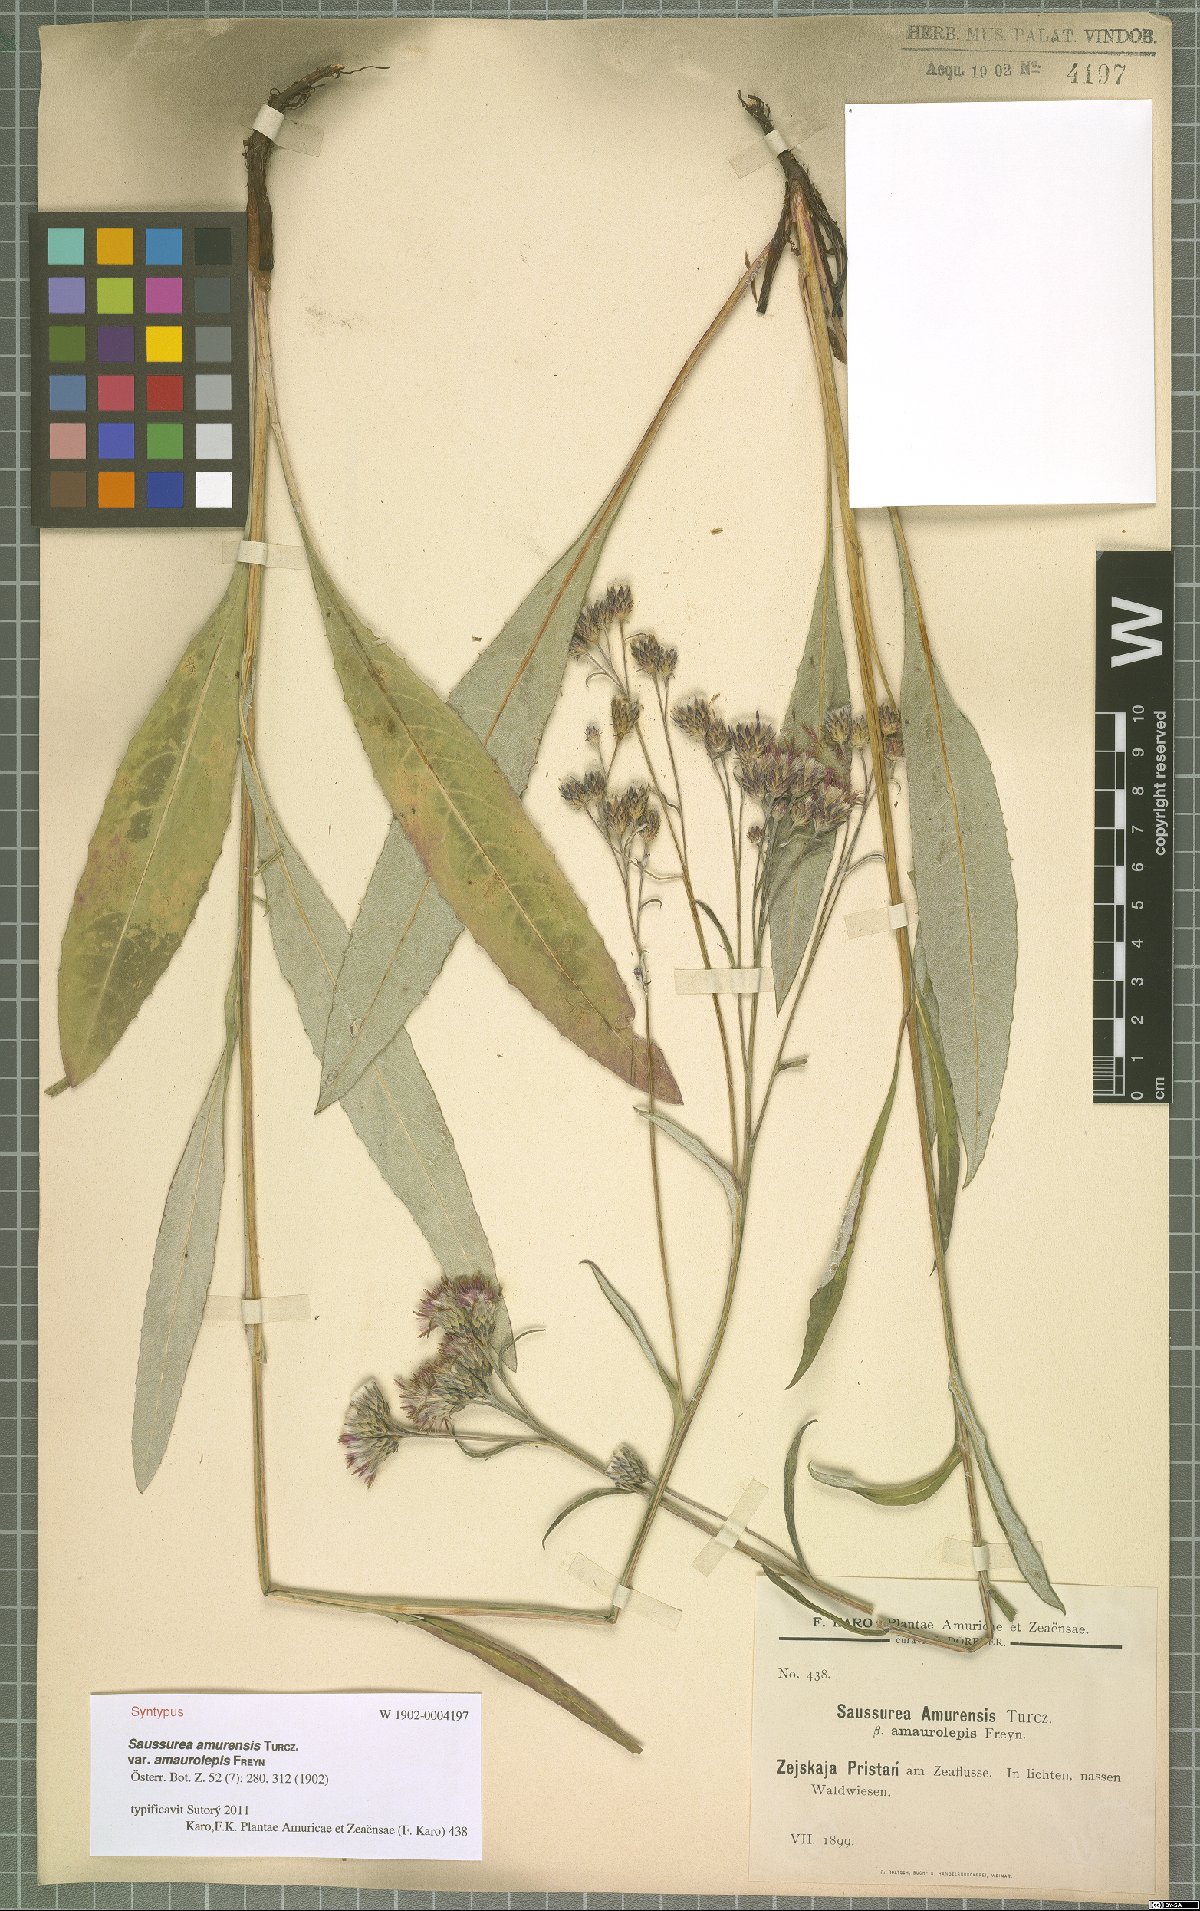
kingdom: Plantae
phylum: Tracheophyta
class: Magnoliopsida
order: Asterales
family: Asteraceae
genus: Saussurea
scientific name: Saussurea amurensis
